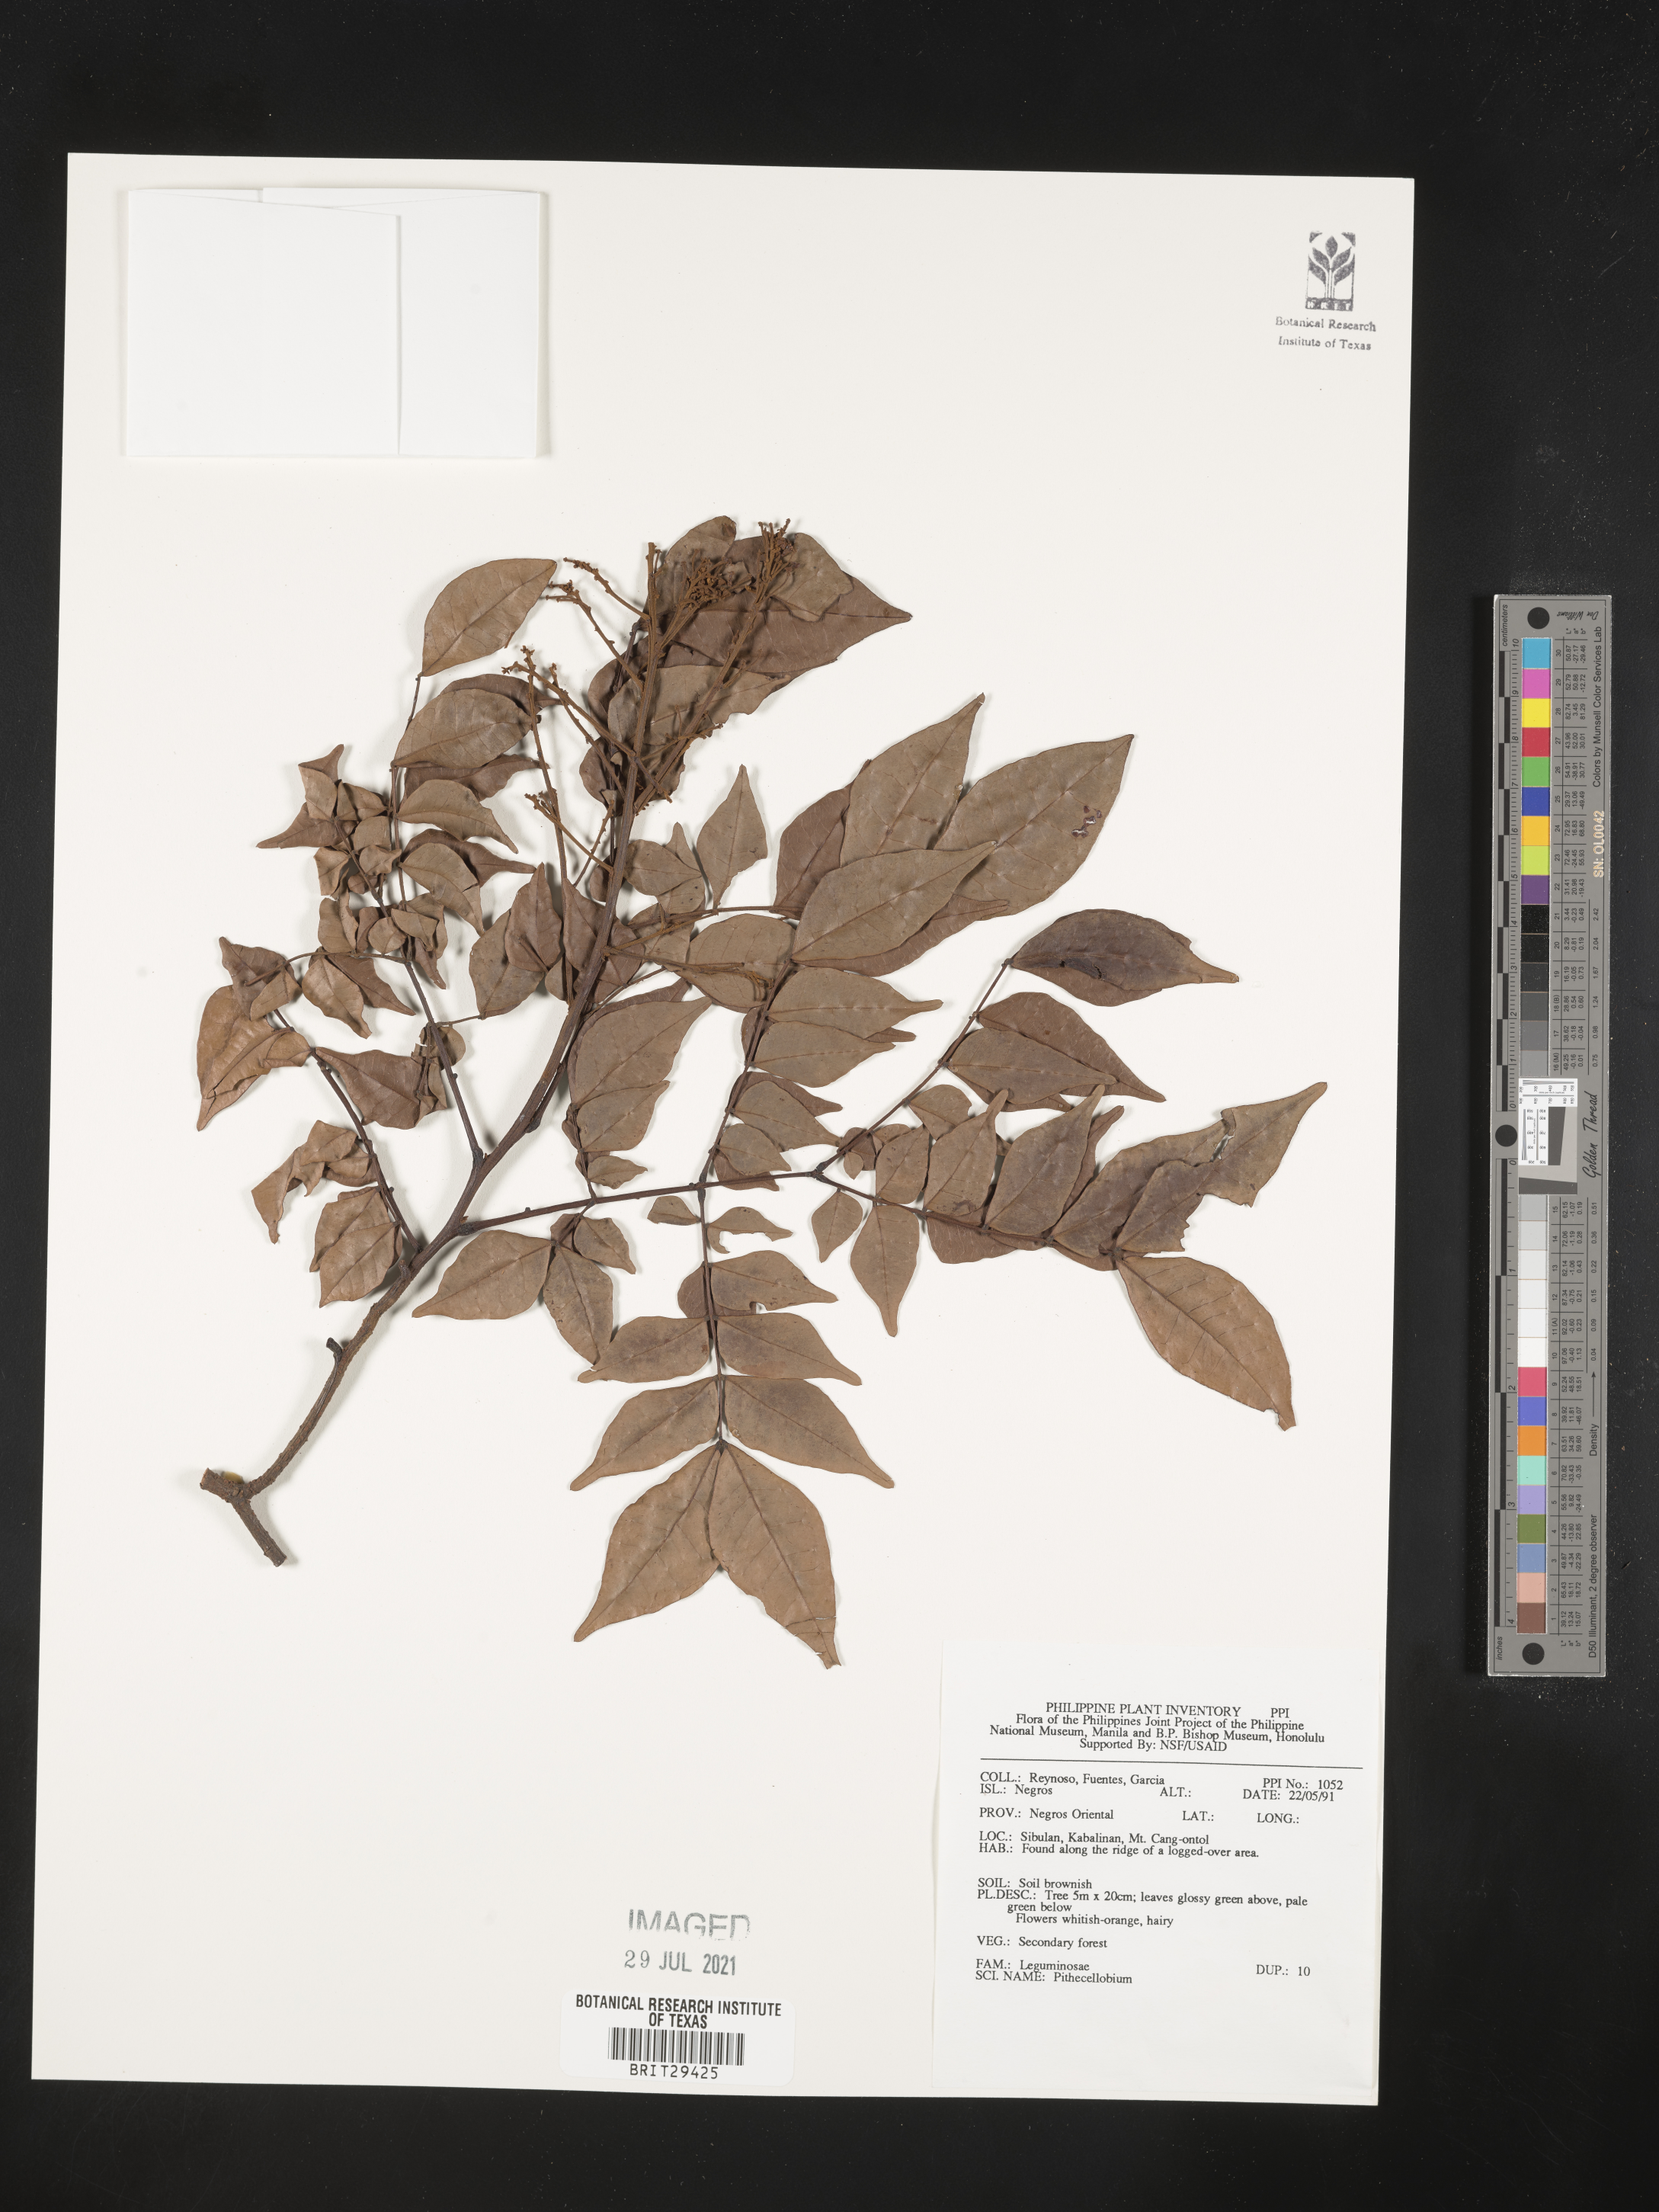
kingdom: Plantae
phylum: Tracheophyta
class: Magnoliopsida
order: Fabales
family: Fabaceae
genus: Pithecellobium
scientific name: Pithecellobium
